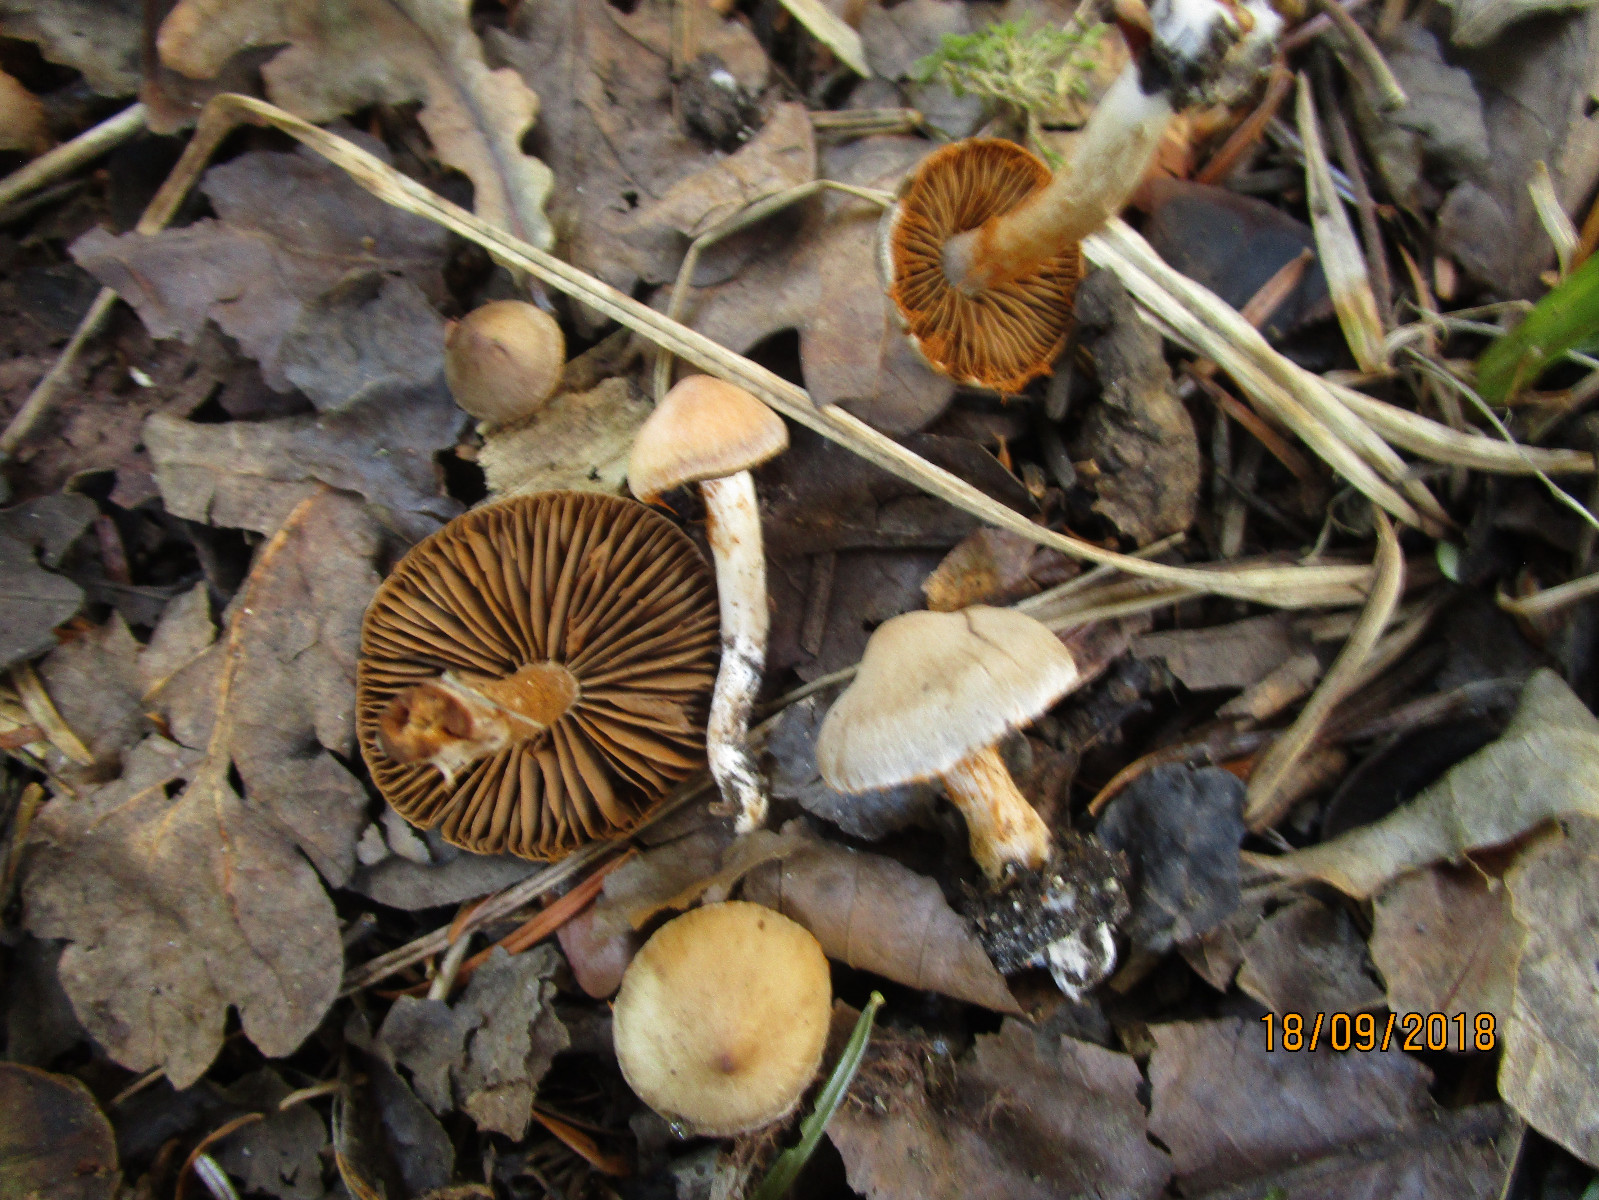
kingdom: Fungi
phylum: Basidiomycota
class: Agaricomycetes
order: Agaricales
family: Cortinariaceae
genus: Cortinarius
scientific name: Cortinarius
